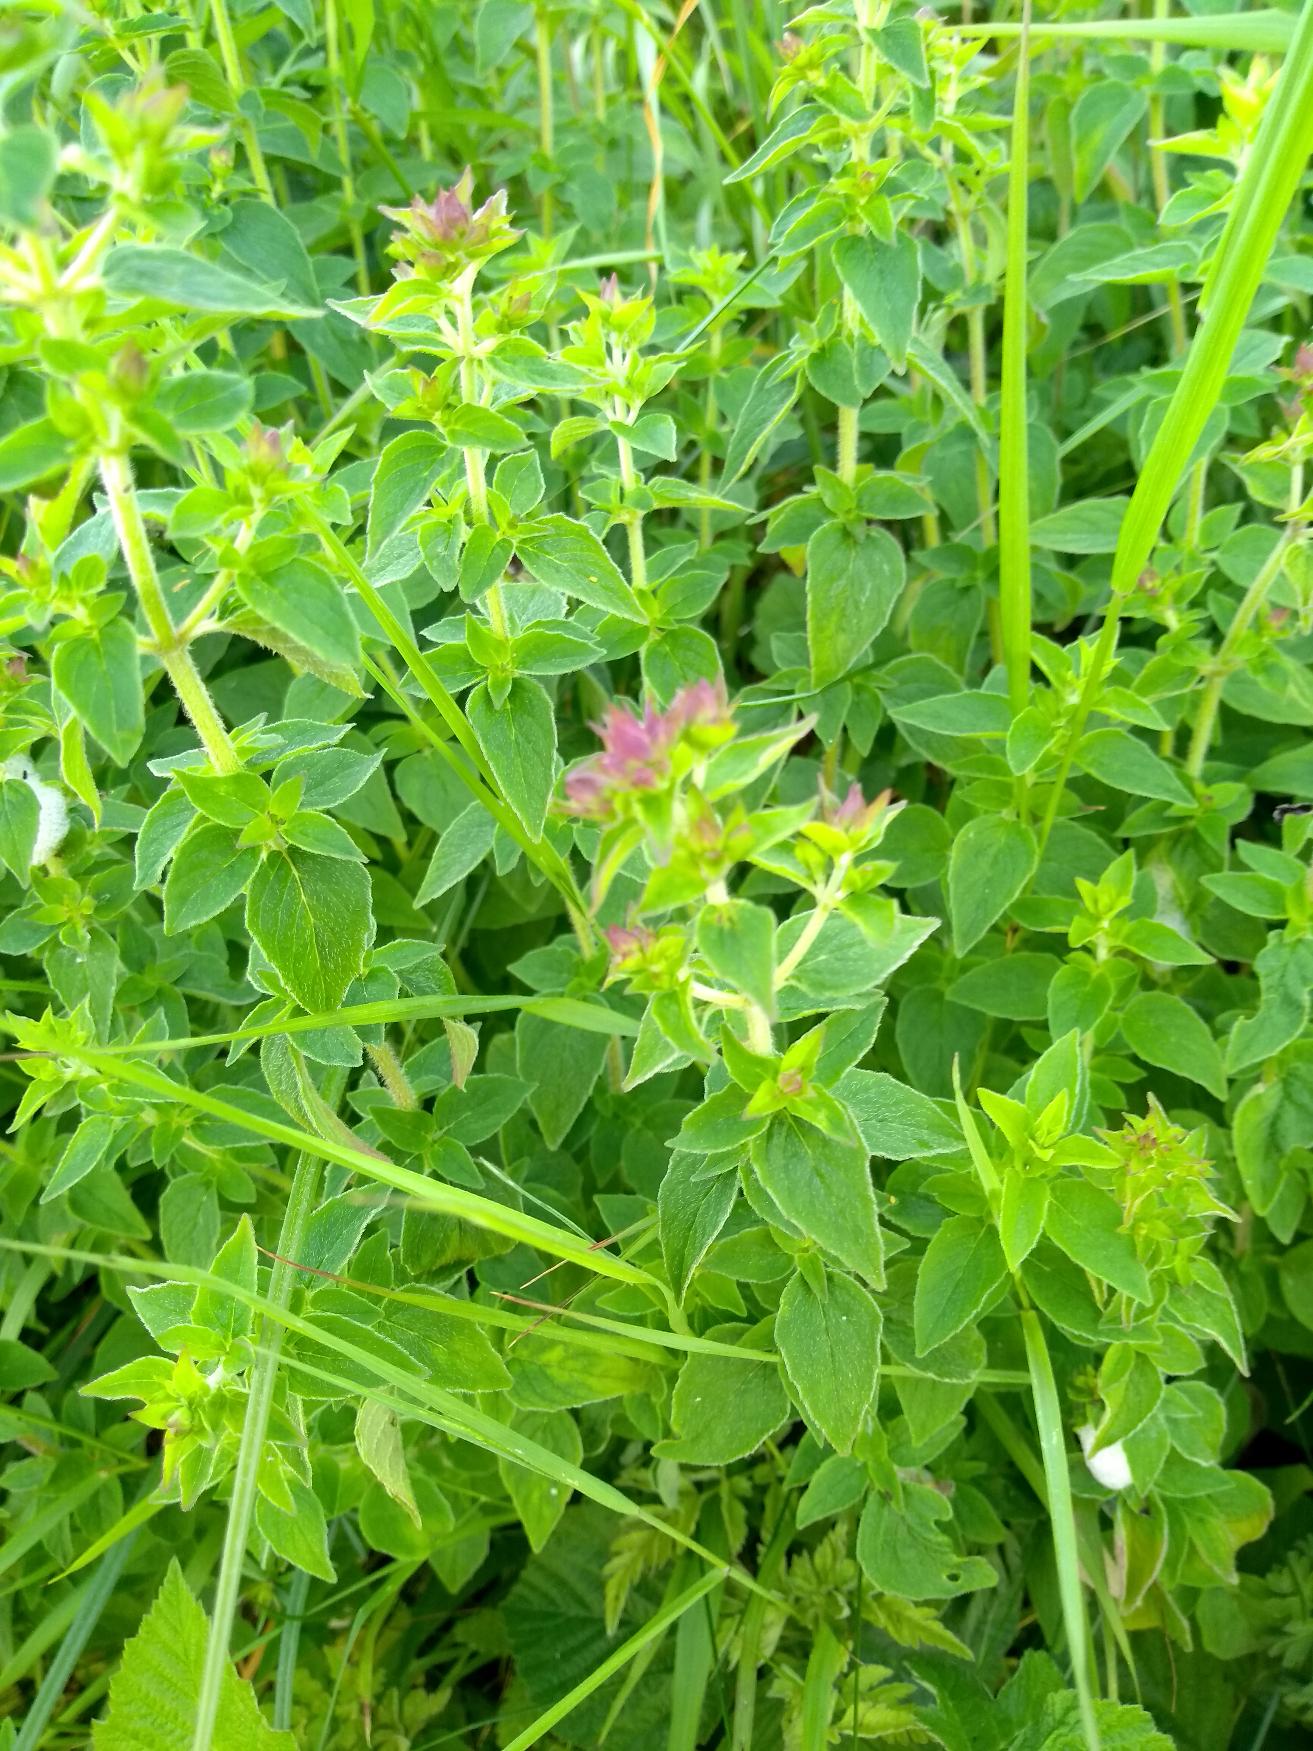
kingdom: Plantae
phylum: Tracheophyta
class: Magnoliopsida
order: Lamiales
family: Lamiaceae
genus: Origanum
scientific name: Origanum vulgare
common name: Merian
